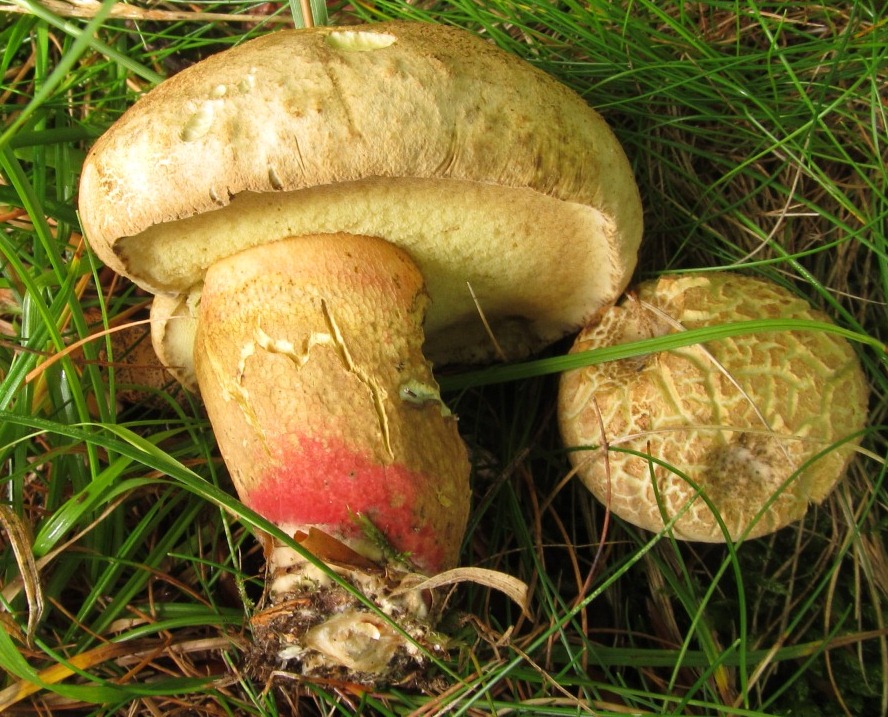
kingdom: Fungi
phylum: Basidiomycota
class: Agaricomycetes
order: Boletales
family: Boletaceae
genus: Caloboletus
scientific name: Caloboletus calopus
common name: skønfodet rørhat
